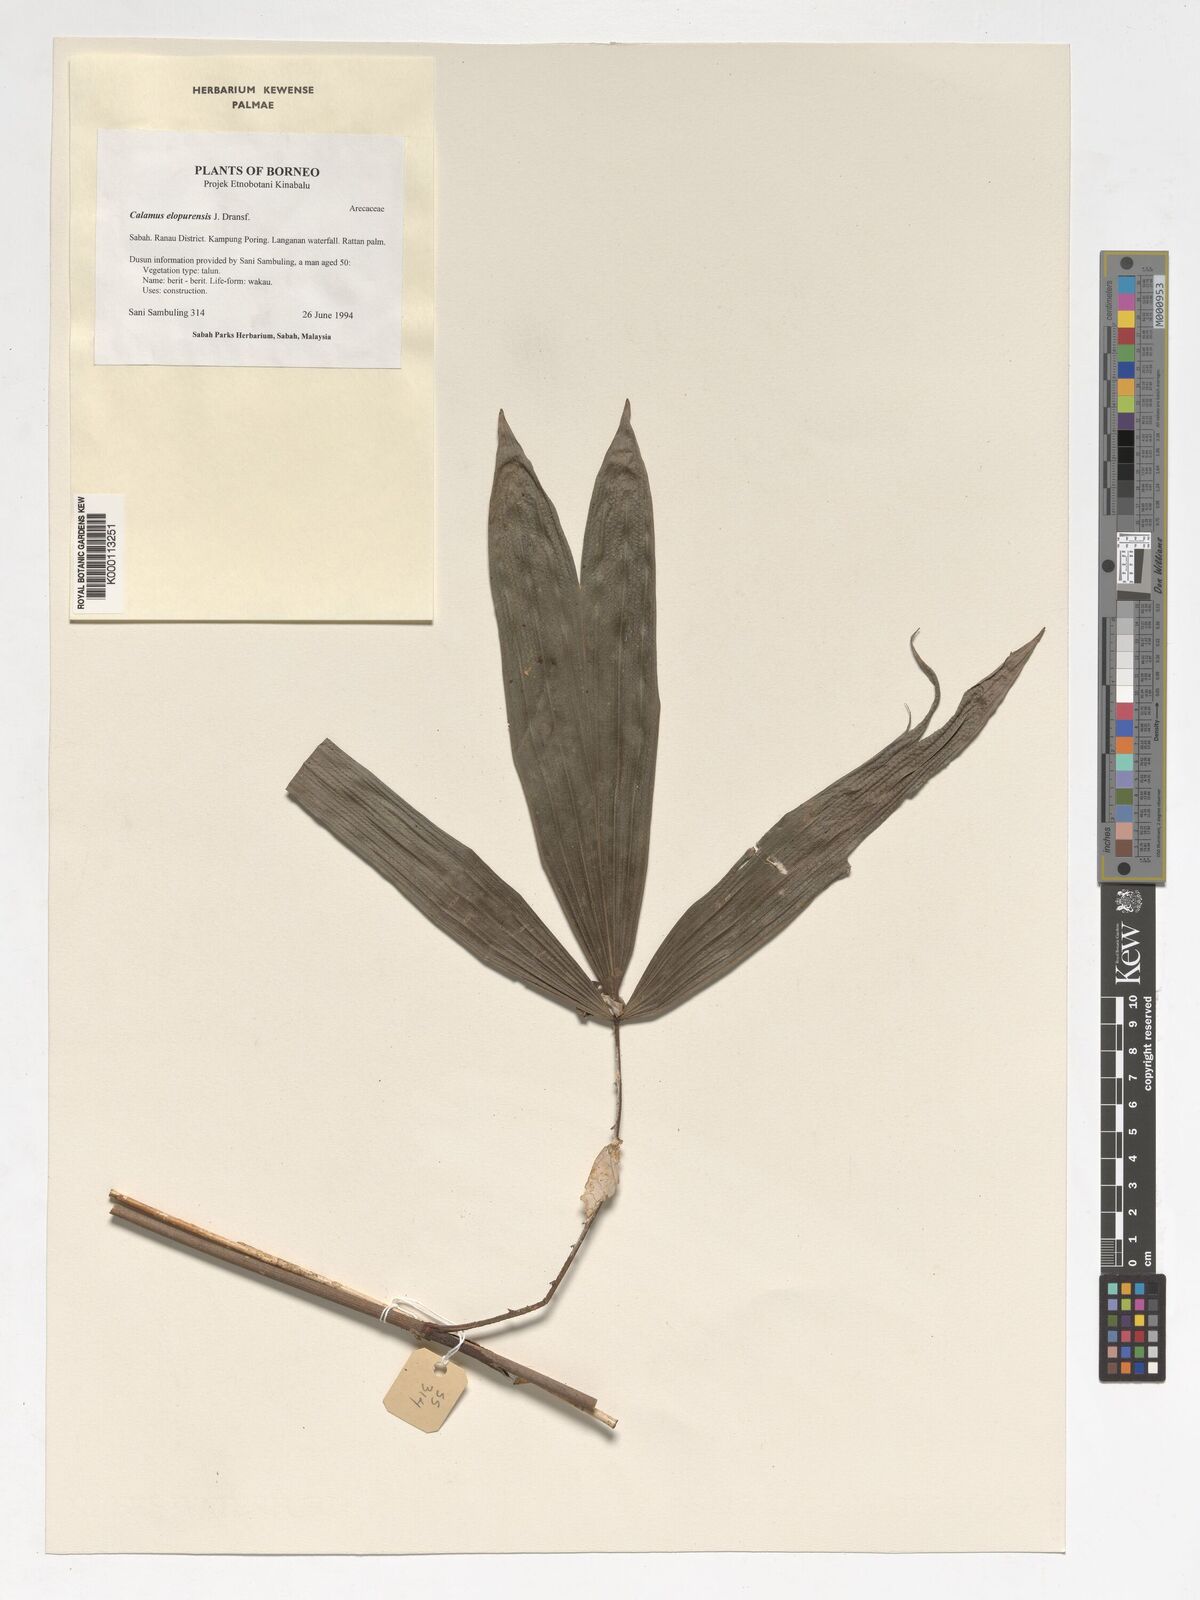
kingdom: Plantae
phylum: Tracheophyta
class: Liliopsida
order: Arecales
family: Arecaceae
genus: Calamus
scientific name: Calamus javensis
